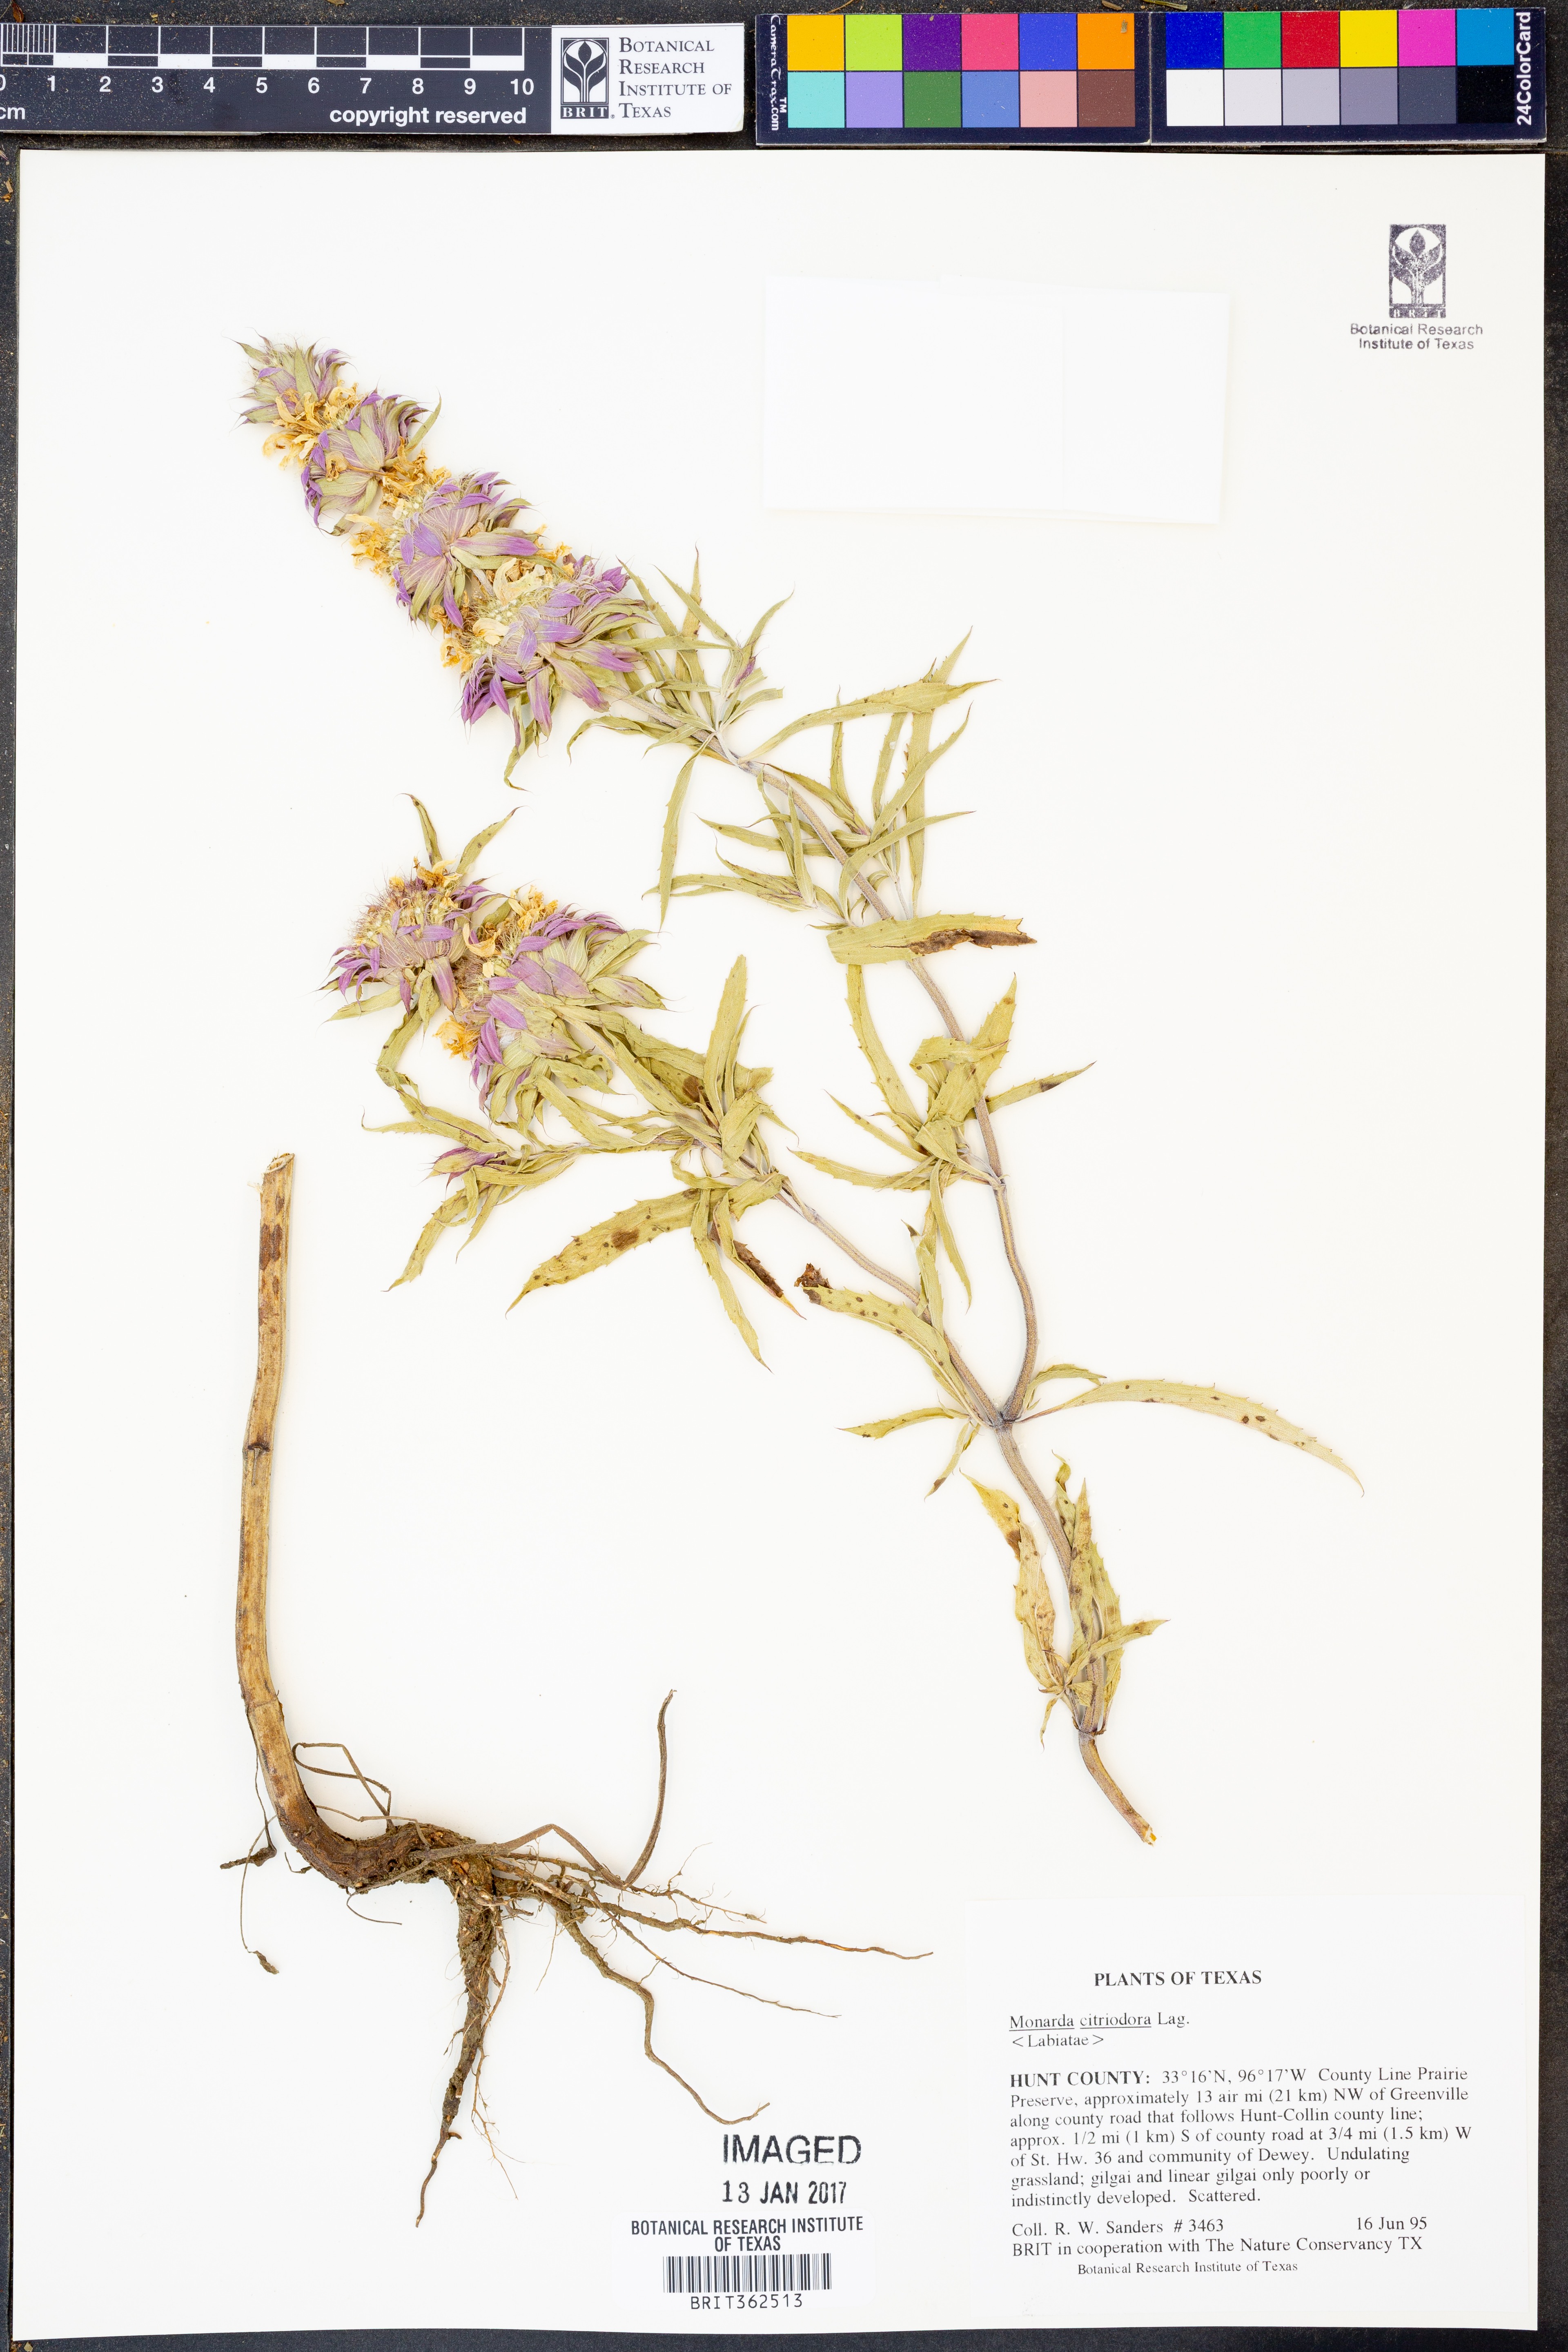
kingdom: Plantae
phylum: Tracheophyta
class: Magnoliopsida
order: Lamiales
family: Lamiaceae
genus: Monarda
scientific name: Monarda citriodora
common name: Lemon beebalm
